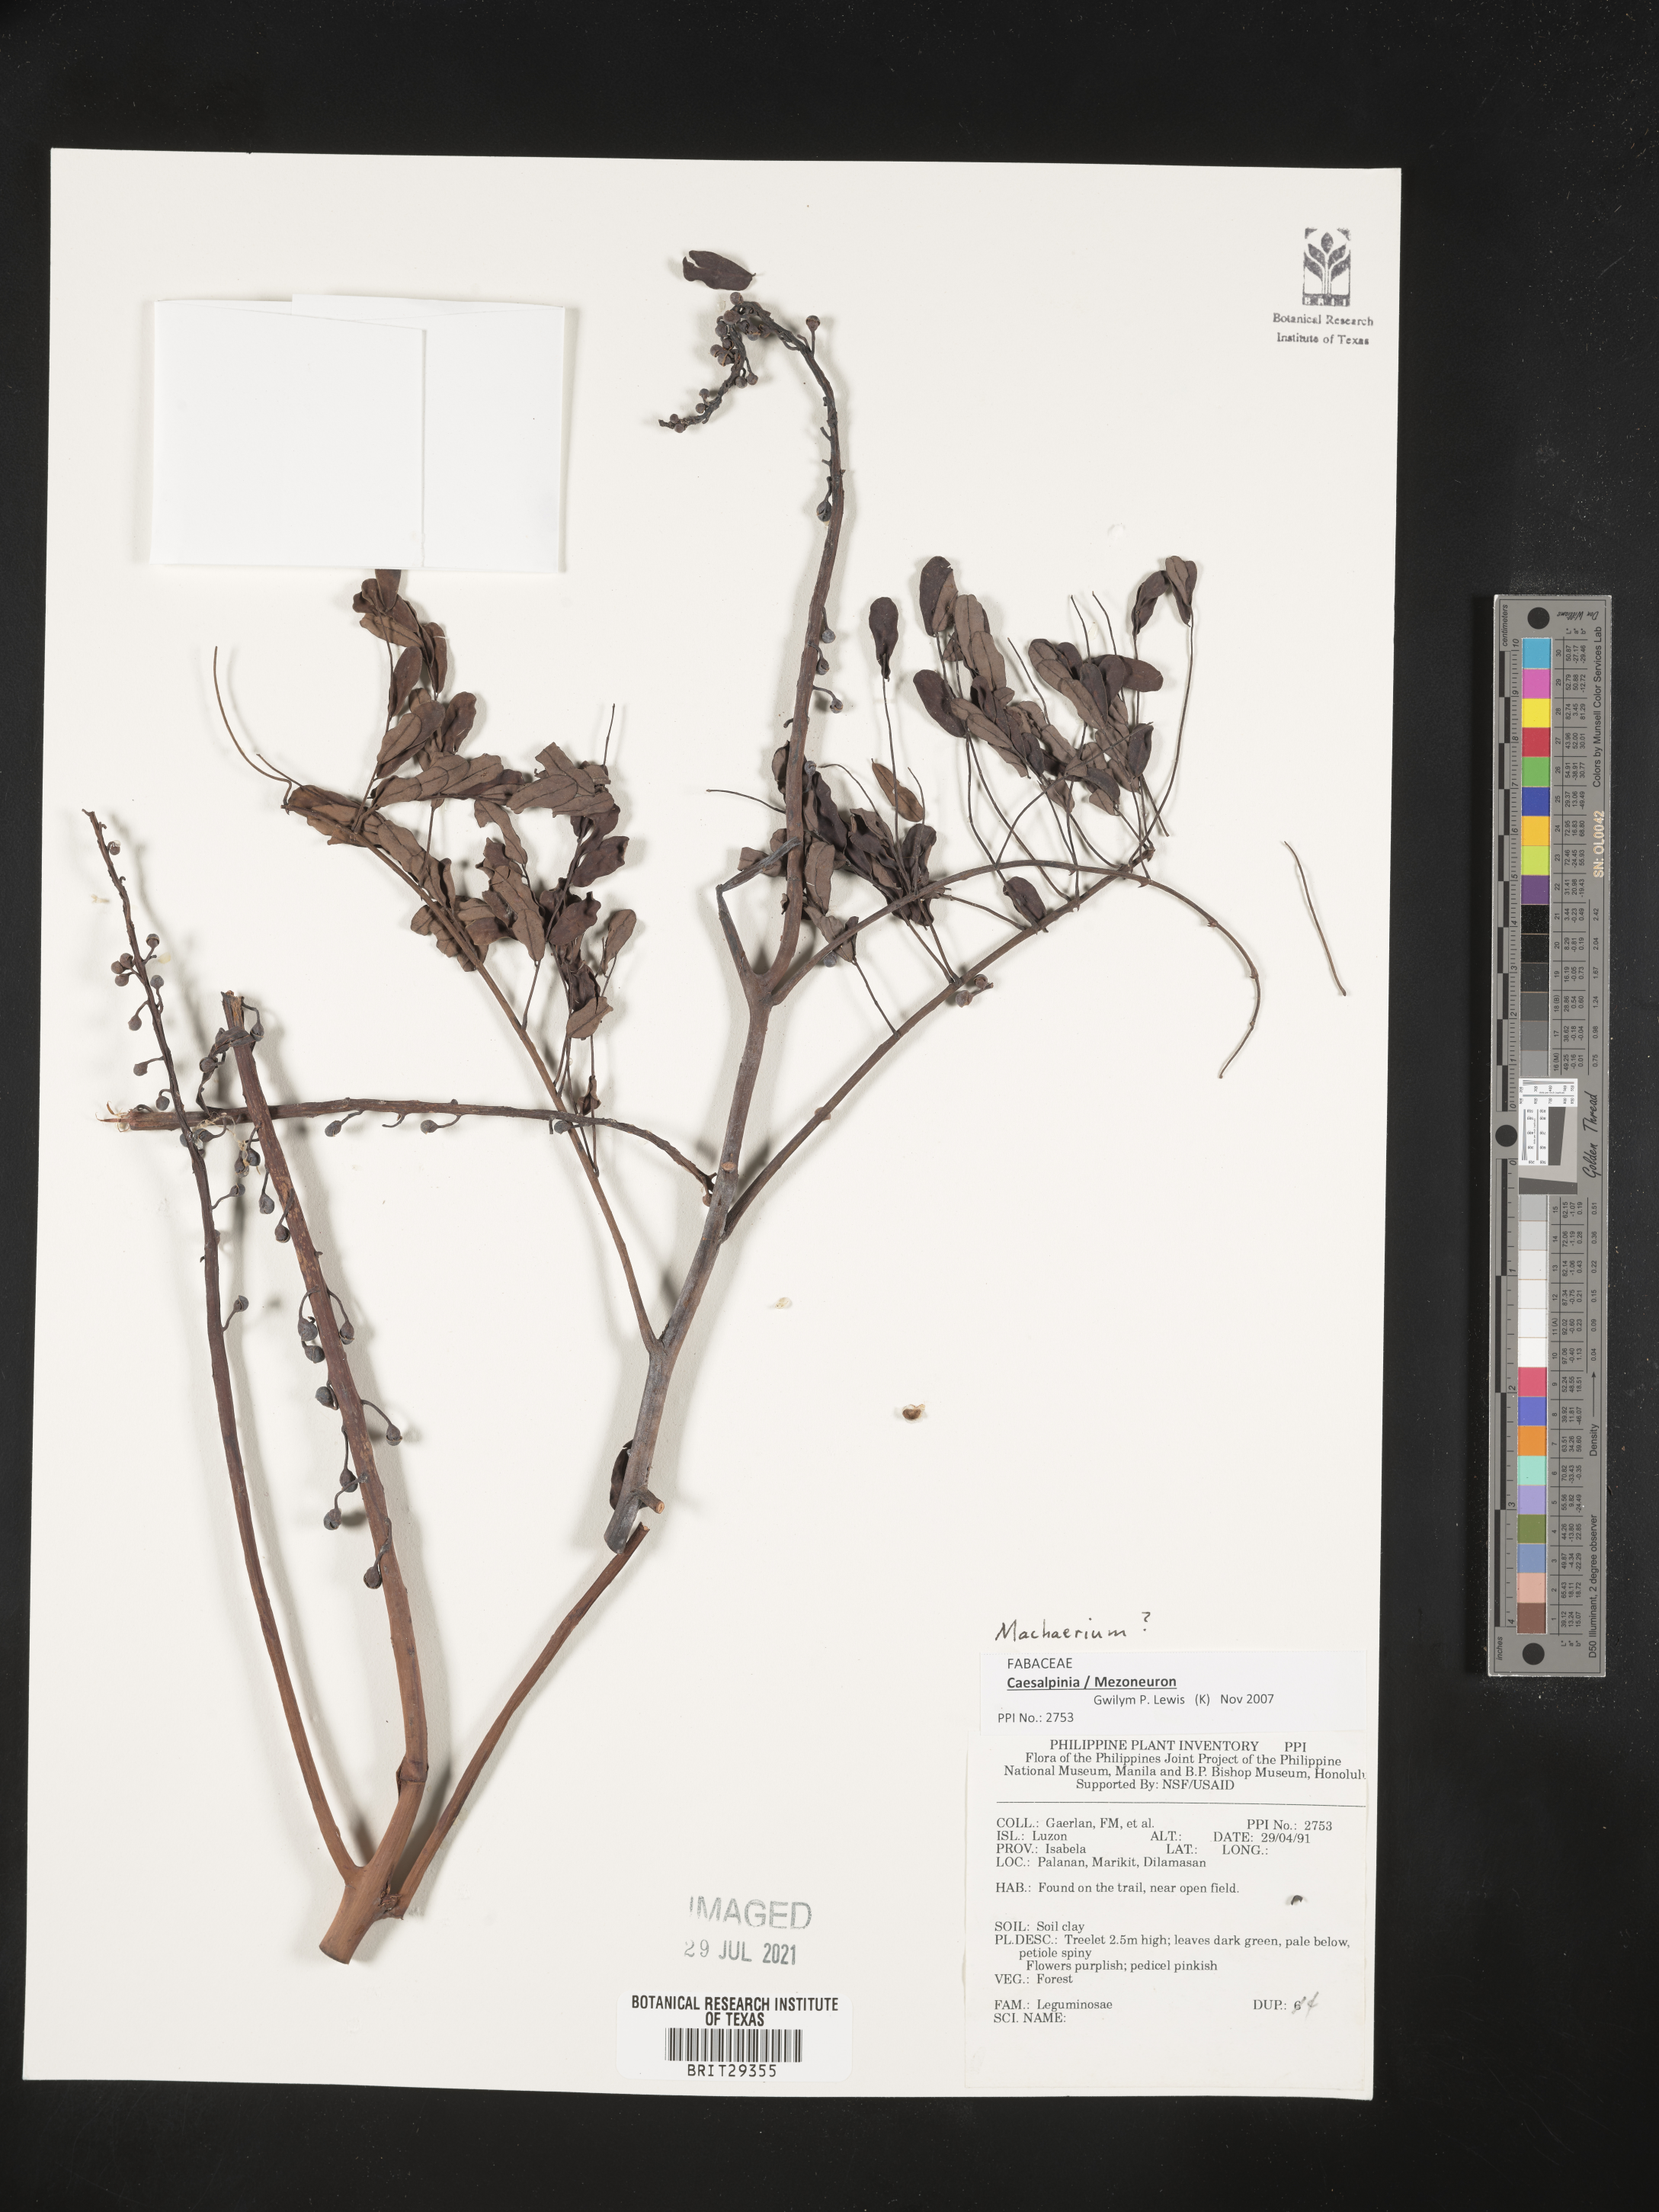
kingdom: Plantae
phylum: Tracheophyta
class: Magnoliopsida
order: Fabales
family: Fabaceae
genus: Machaerium
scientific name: Machaerium
